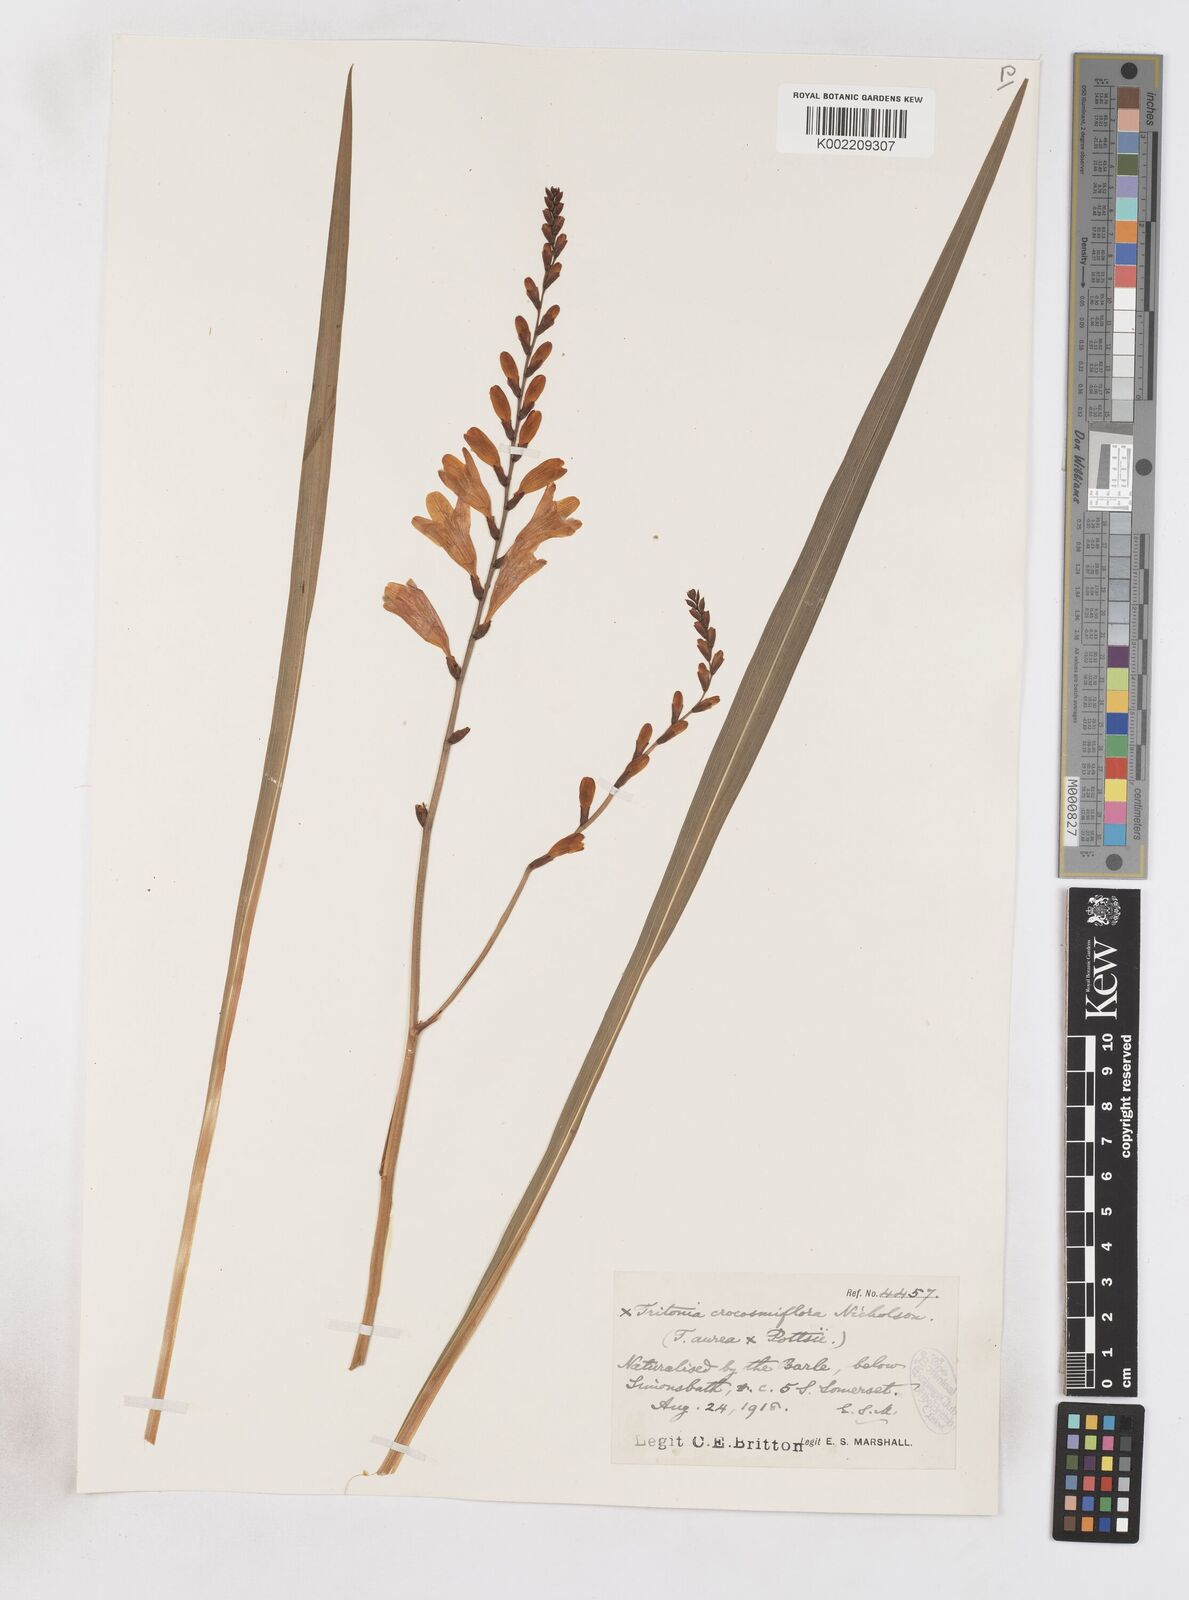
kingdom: Plantae
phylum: Tracheophyta
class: Liliopsida
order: Asparagales
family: Iridaceae
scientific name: Iridaceae
